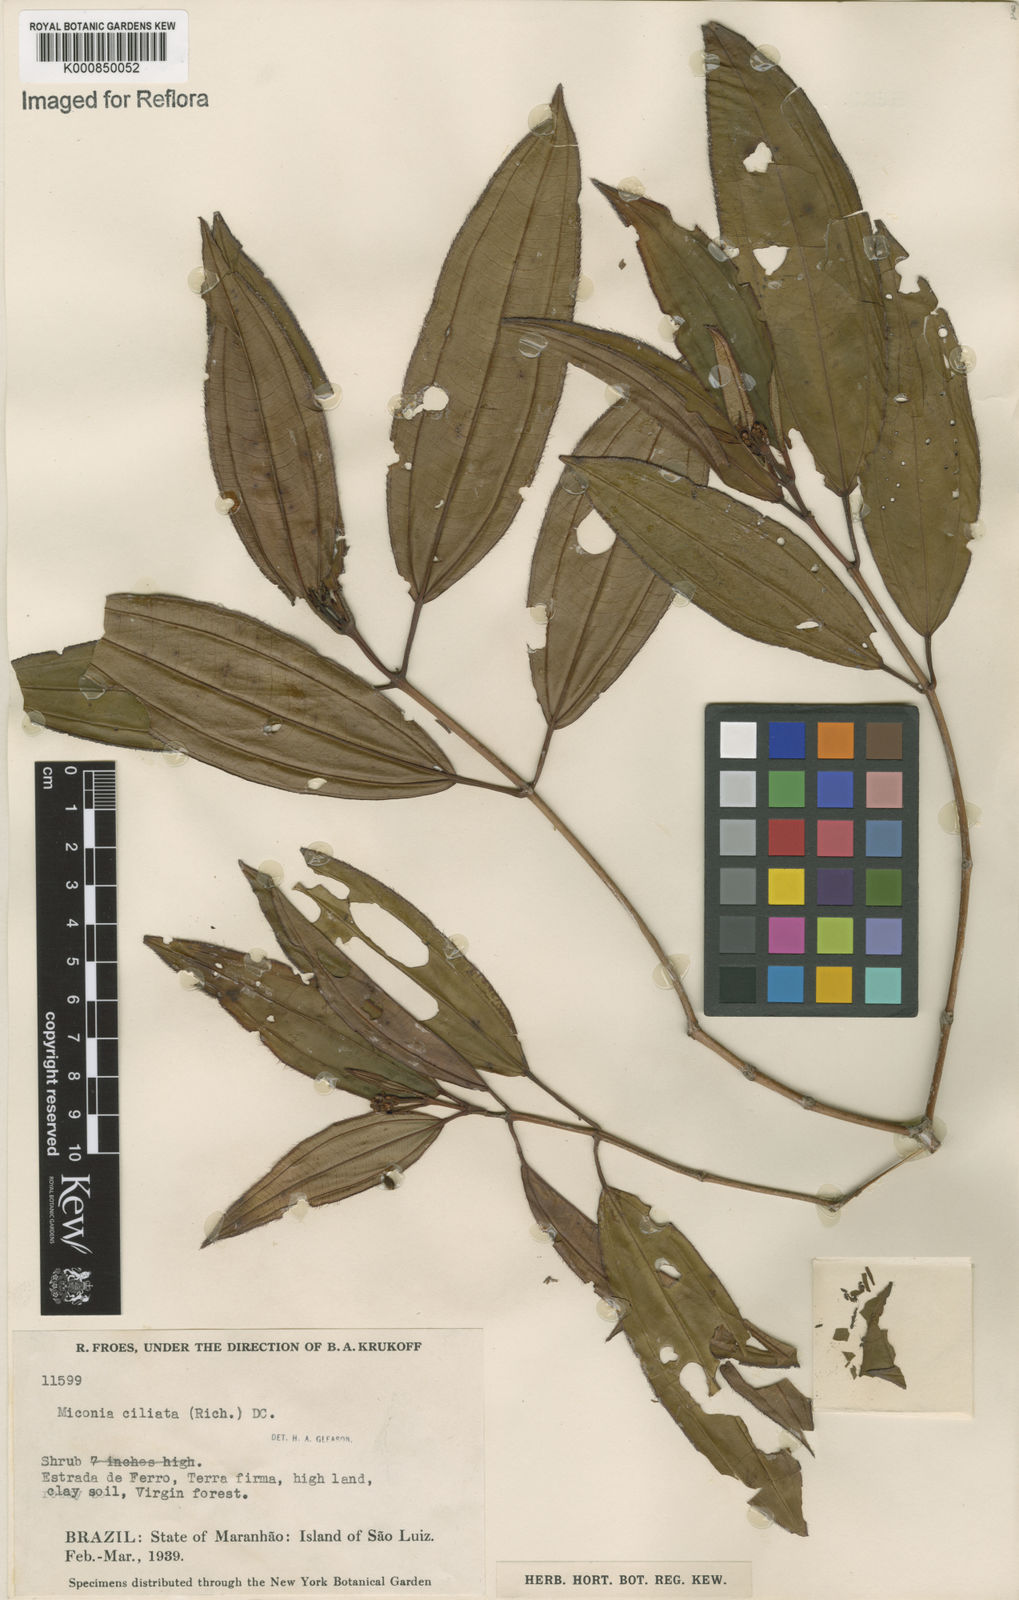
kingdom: Plantae
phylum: Tracheophyta
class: Magnoliopsida
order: Myrtales
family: Melastomataceae
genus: Miconia
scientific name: Miconia ciliata
